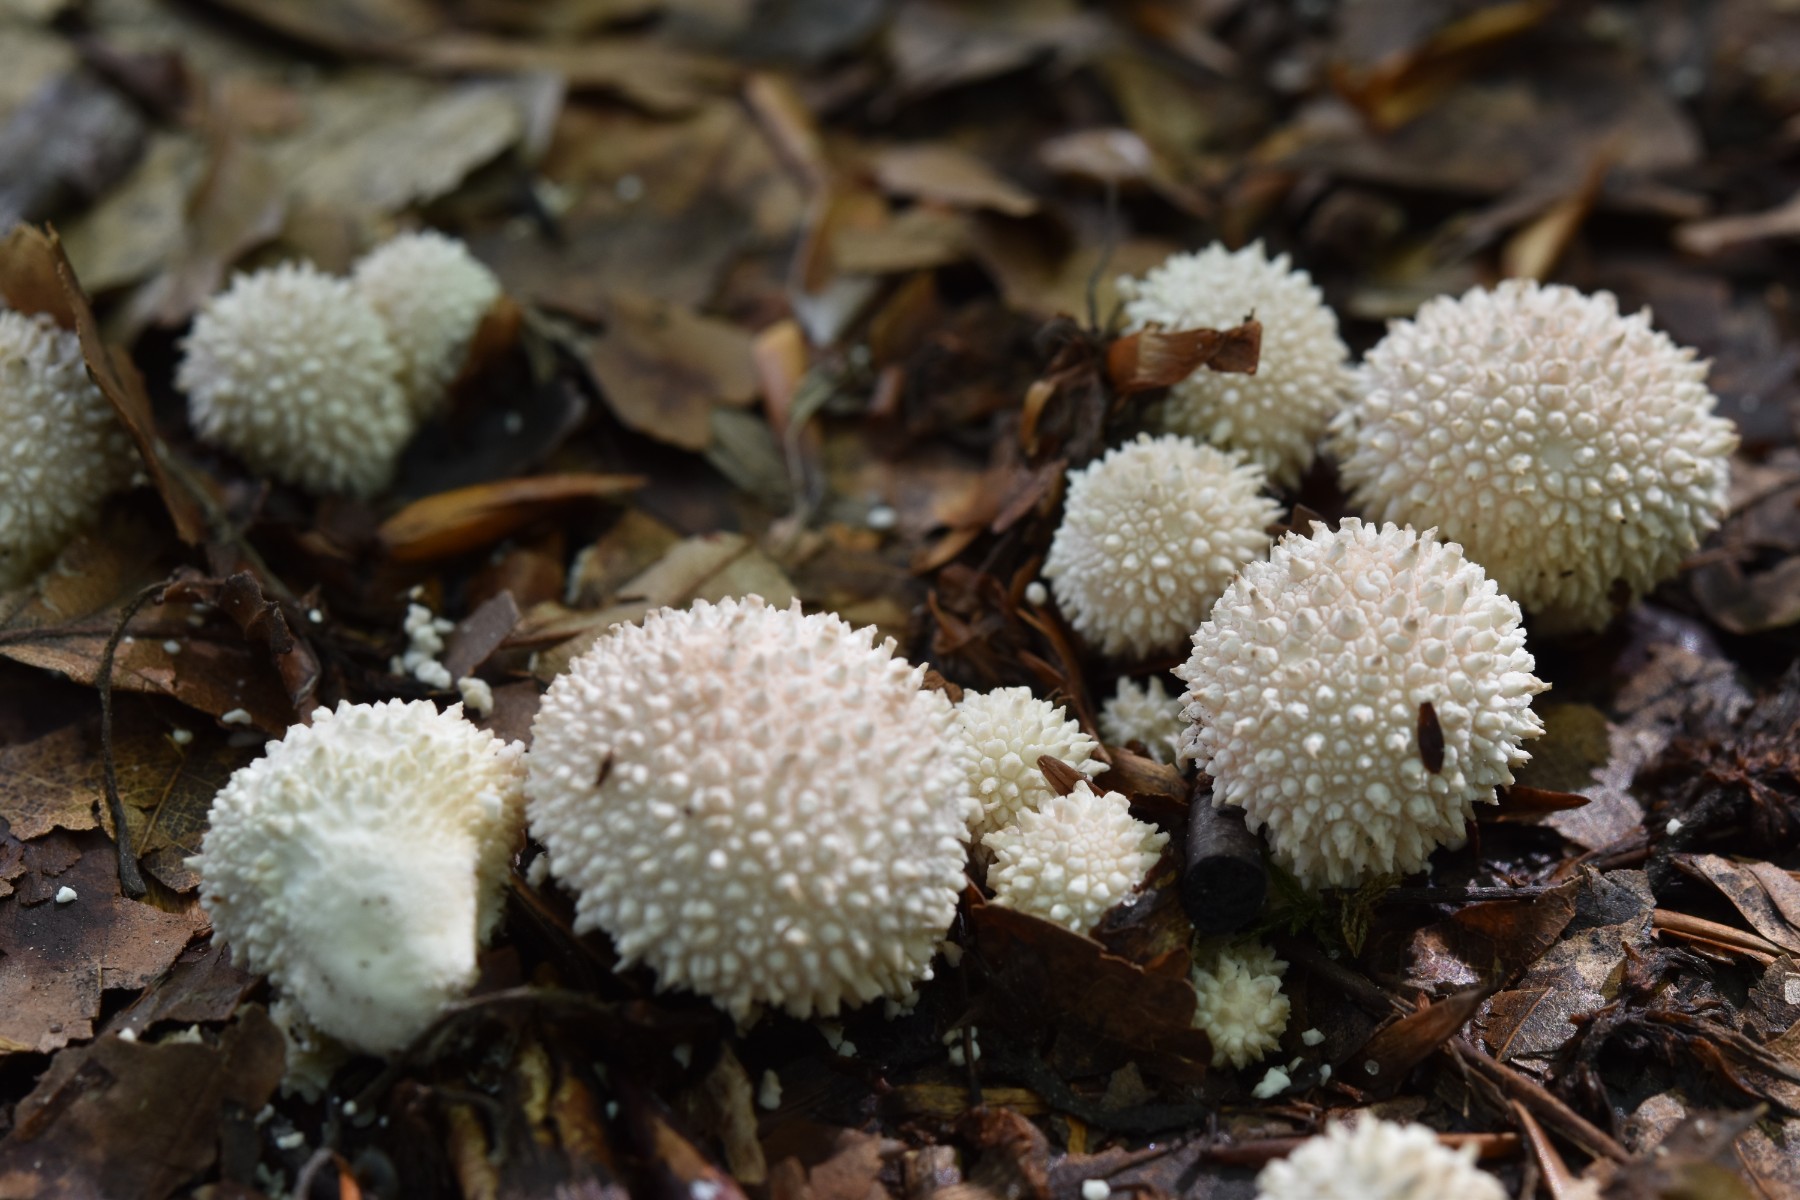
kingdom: Fungi
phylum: Basidiomycota
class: Agaricomycetes
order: Agaricales
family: Lycoperdaceae
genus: Lycoperdon
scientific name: Lycoperdon perlatum
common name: krystal-støvbold
